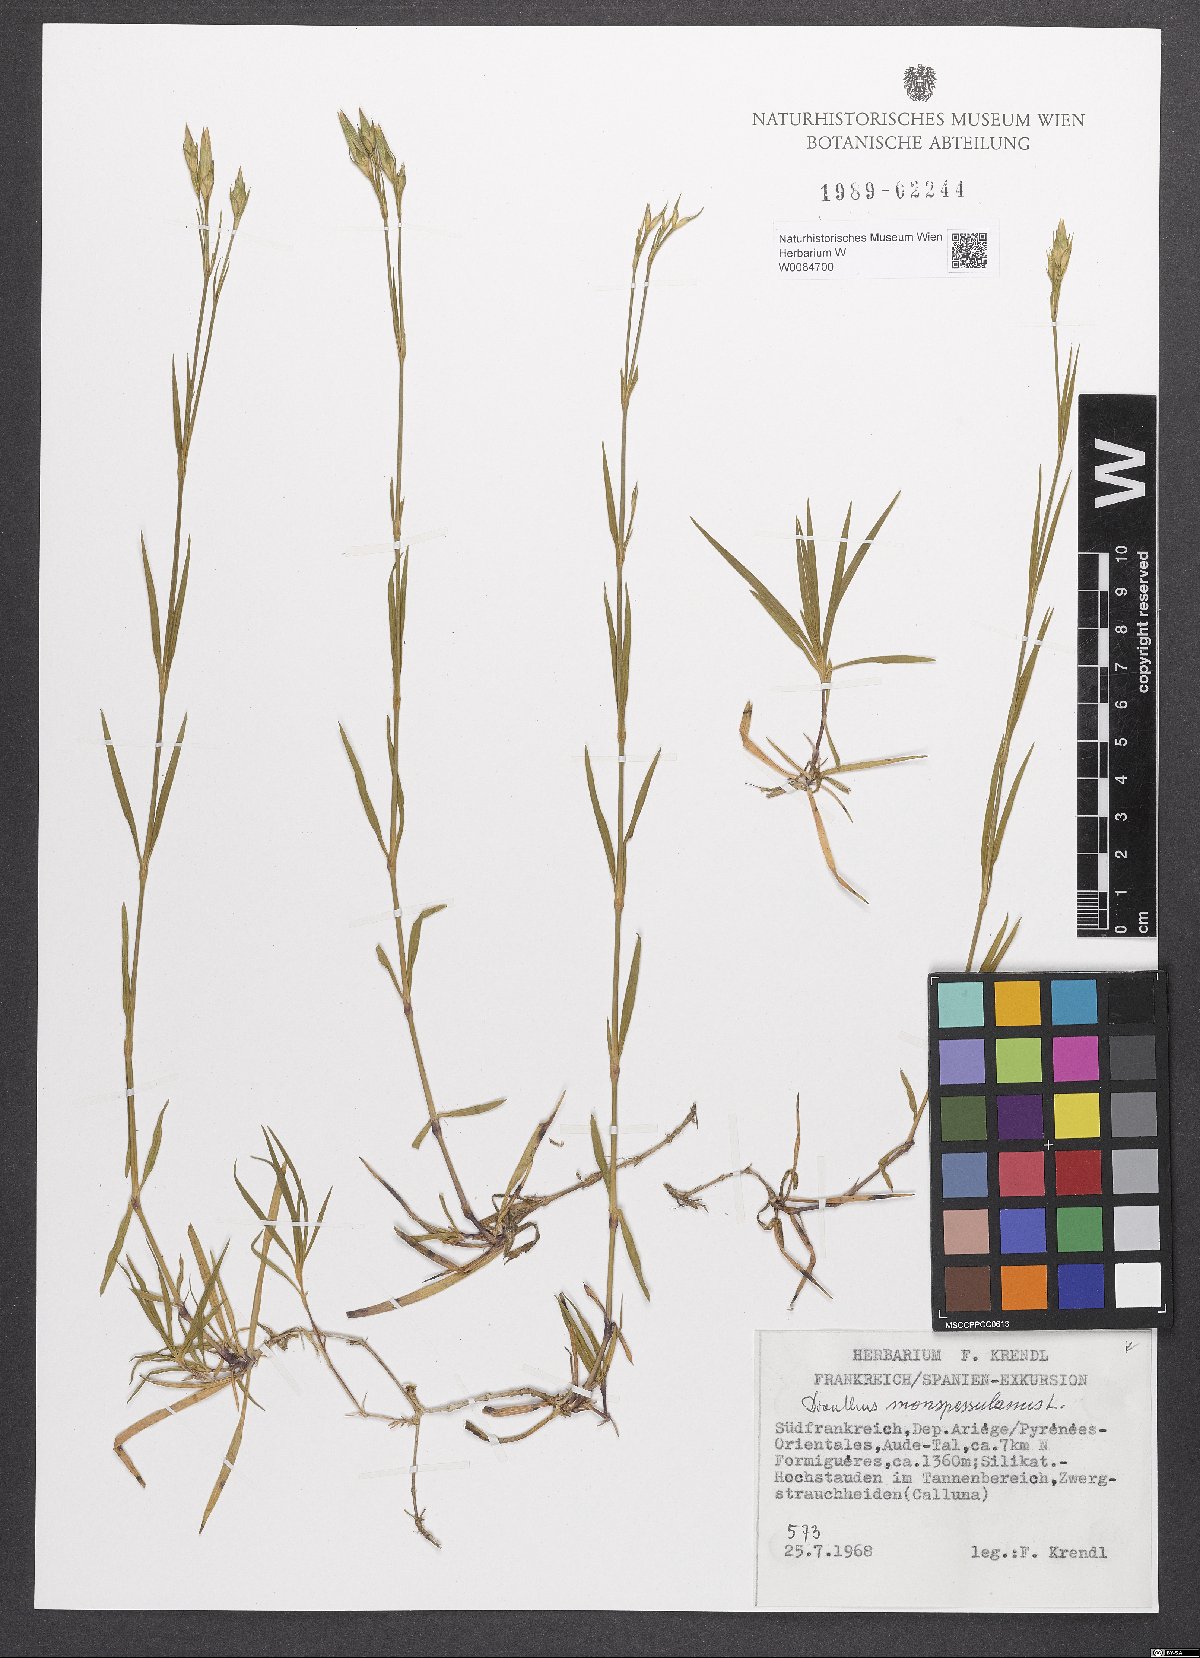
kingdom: Plantae
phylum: Tracheophyta
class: Magnoliopsida
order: Caryophyllales
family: Caryophyllaceae
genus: Dianthus
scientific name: Dianthus hyssopifolius
